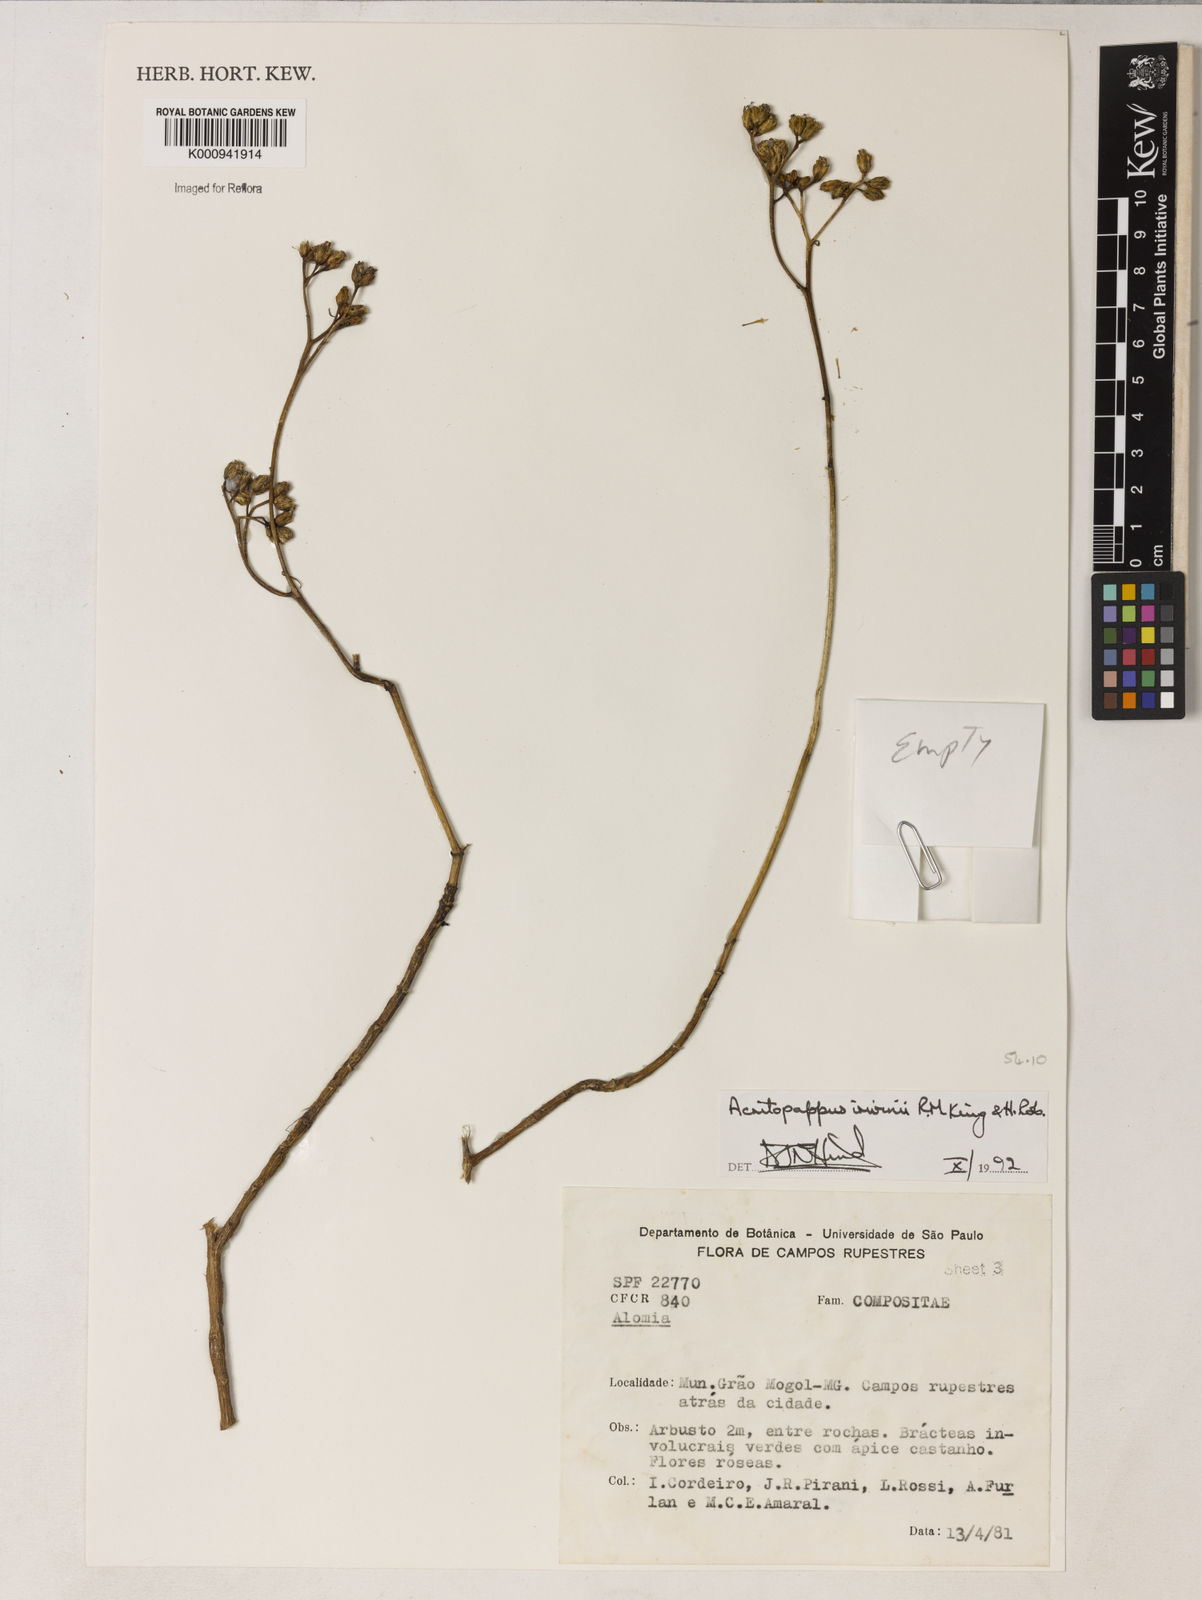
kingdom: Plantae
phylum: Tracheophyta
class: Magnoliopsida
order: Asterales
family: Asteraceae
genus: Acritopappus
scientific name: Acritopappus irwinii
